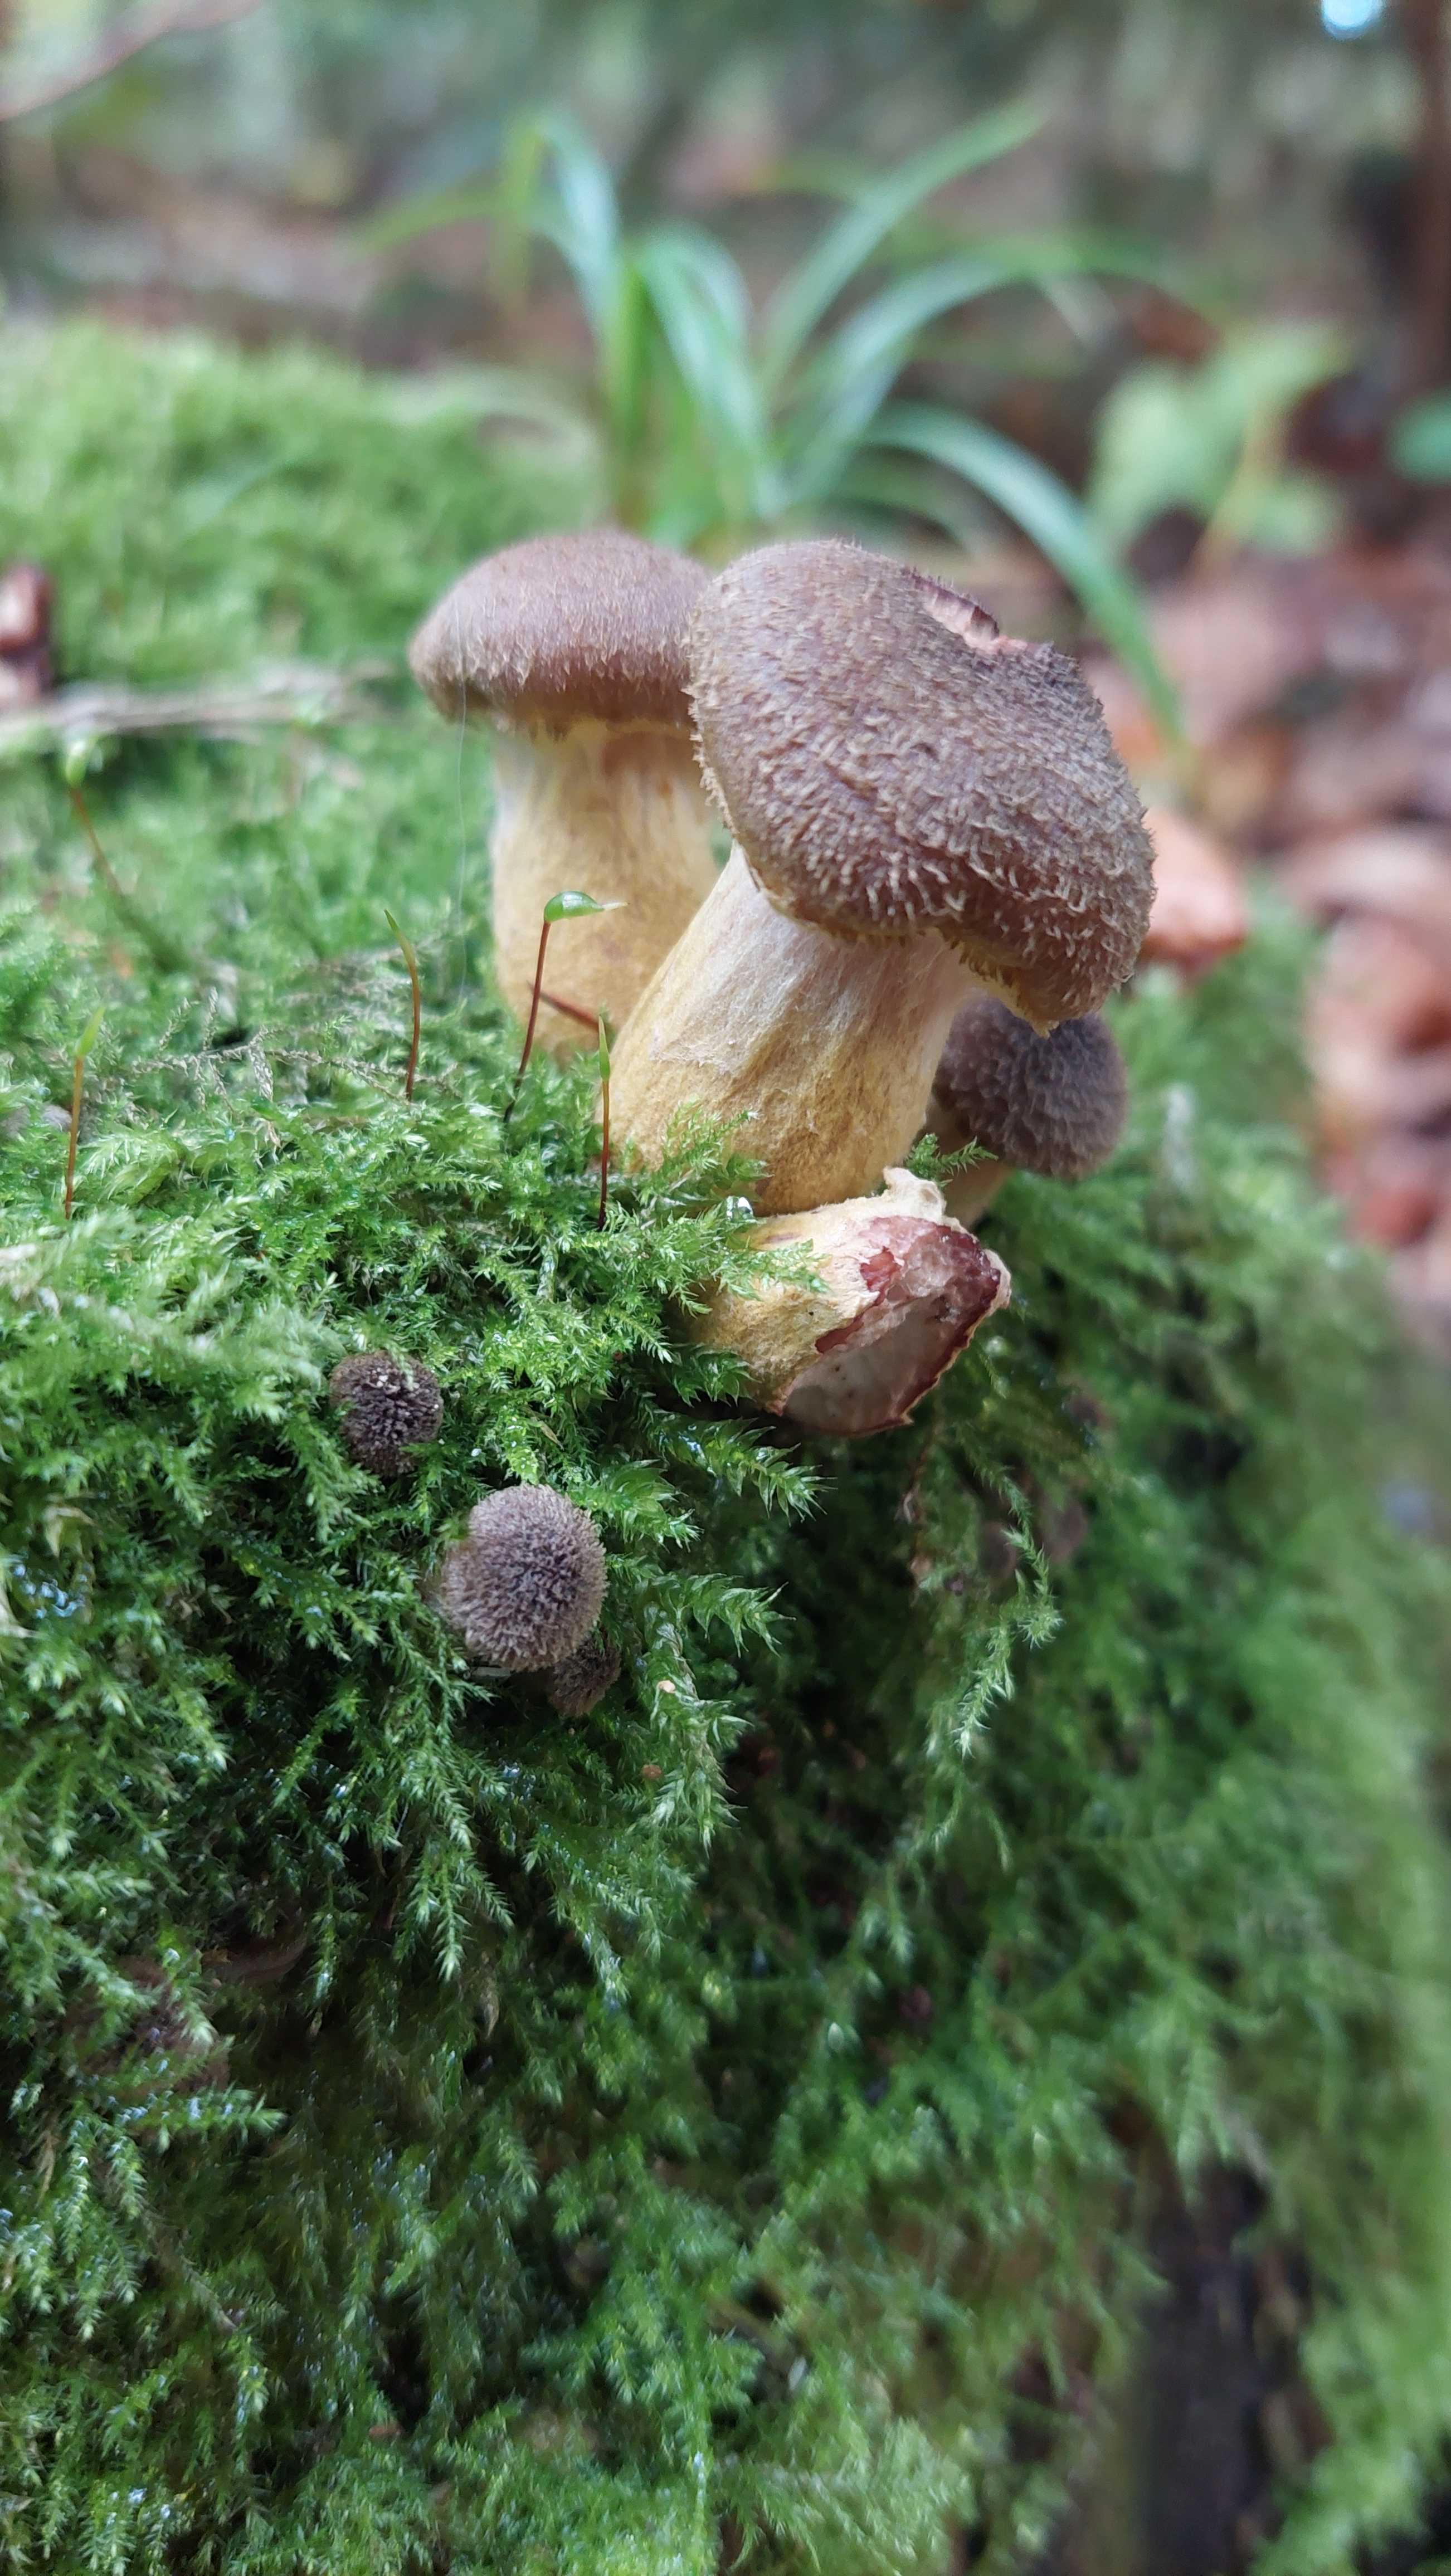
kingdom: Fungi
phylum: Basidiomycota
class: Agaricomycetes
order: Agaricales
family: Physalacriaceae
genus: Armillaria
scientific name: Armillaria
